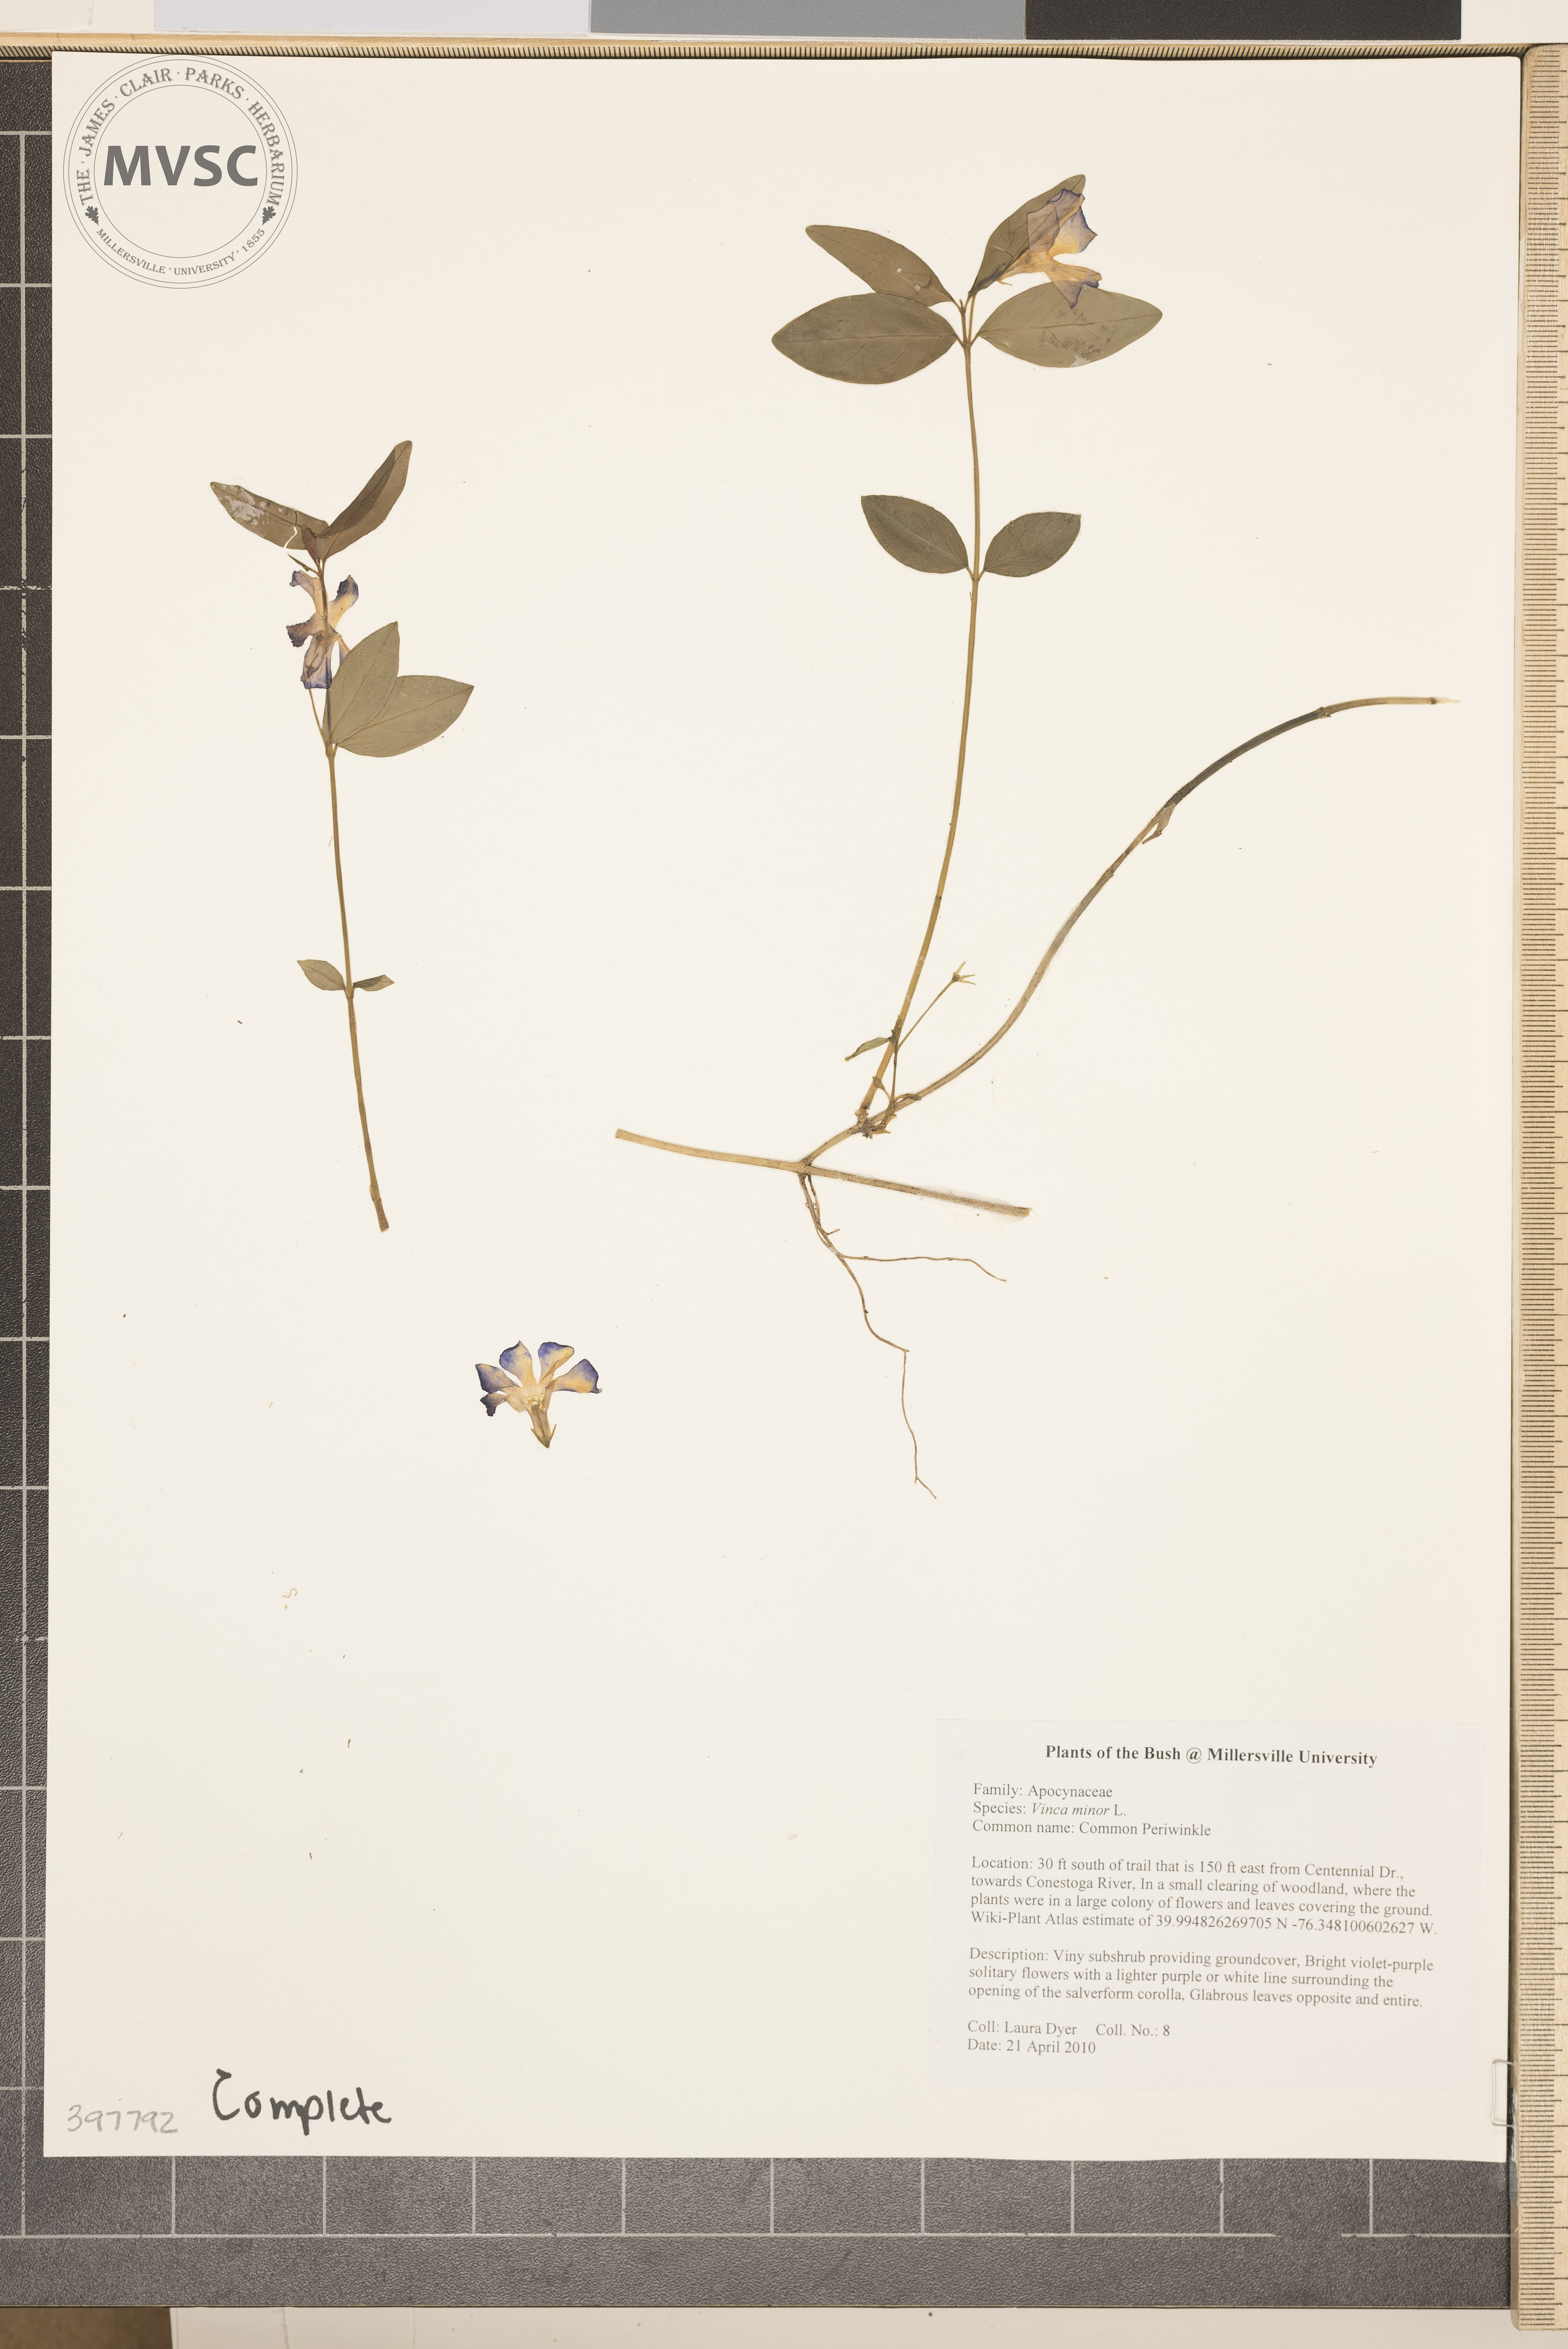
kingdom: Plantae
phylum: Tracheophyta
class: Magnoliopsida
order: Gentianales
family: Apocynaceae
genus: Vinca
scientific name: Vinca minor
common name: Common periwinkle
